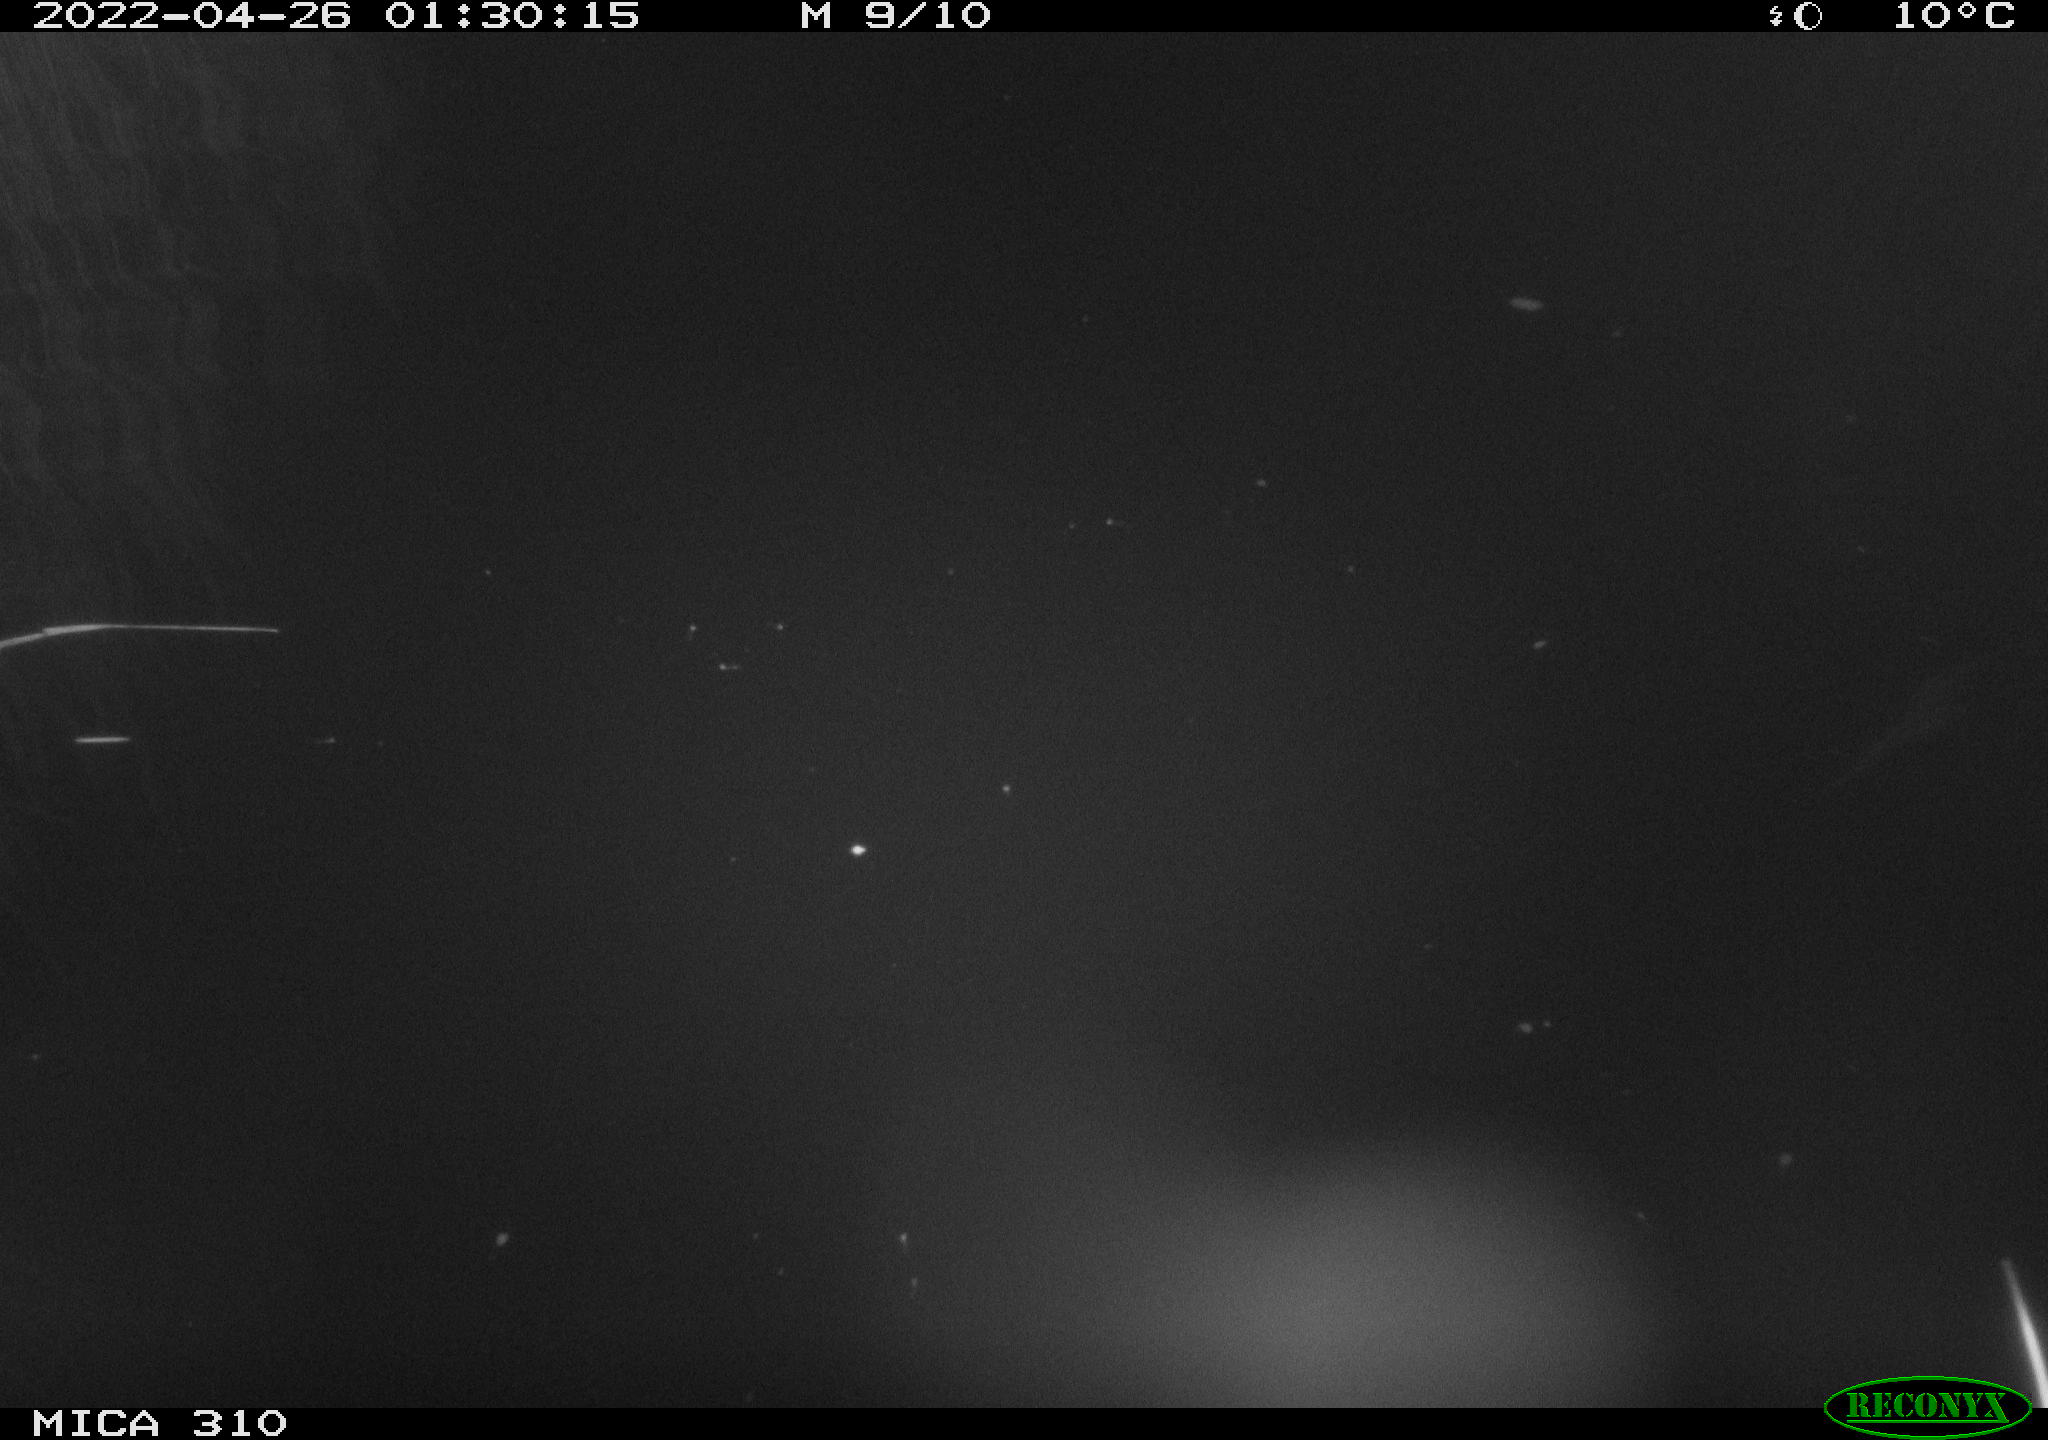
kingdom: Animalia
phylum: Chordata
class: Aves
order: Anseriformes
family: Anatidae
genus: Anas
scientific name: Anas platyrhynchos
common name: Mallard
